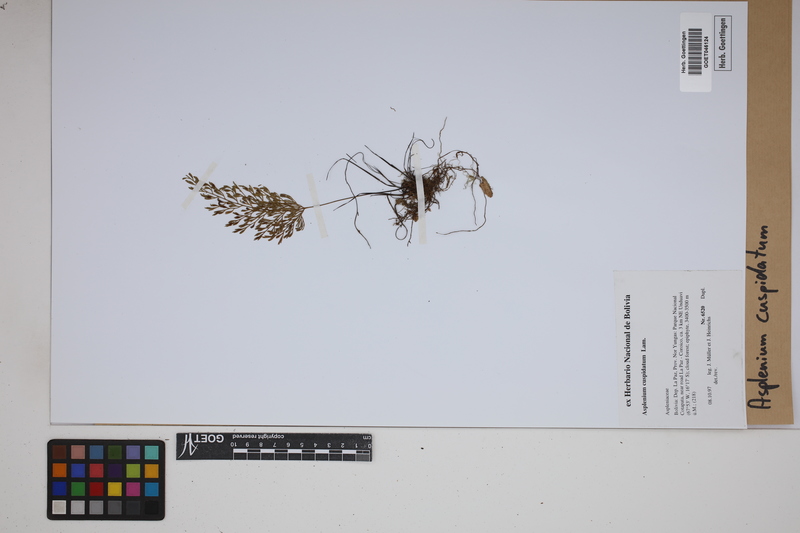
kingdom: Plantae
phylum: Tracheophyta
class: Polypodiopsida
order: Polypodiales
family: Aspleniaceae
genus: Asplenium
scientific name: Asplenium cuspidatum
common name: Eared spleenwort
